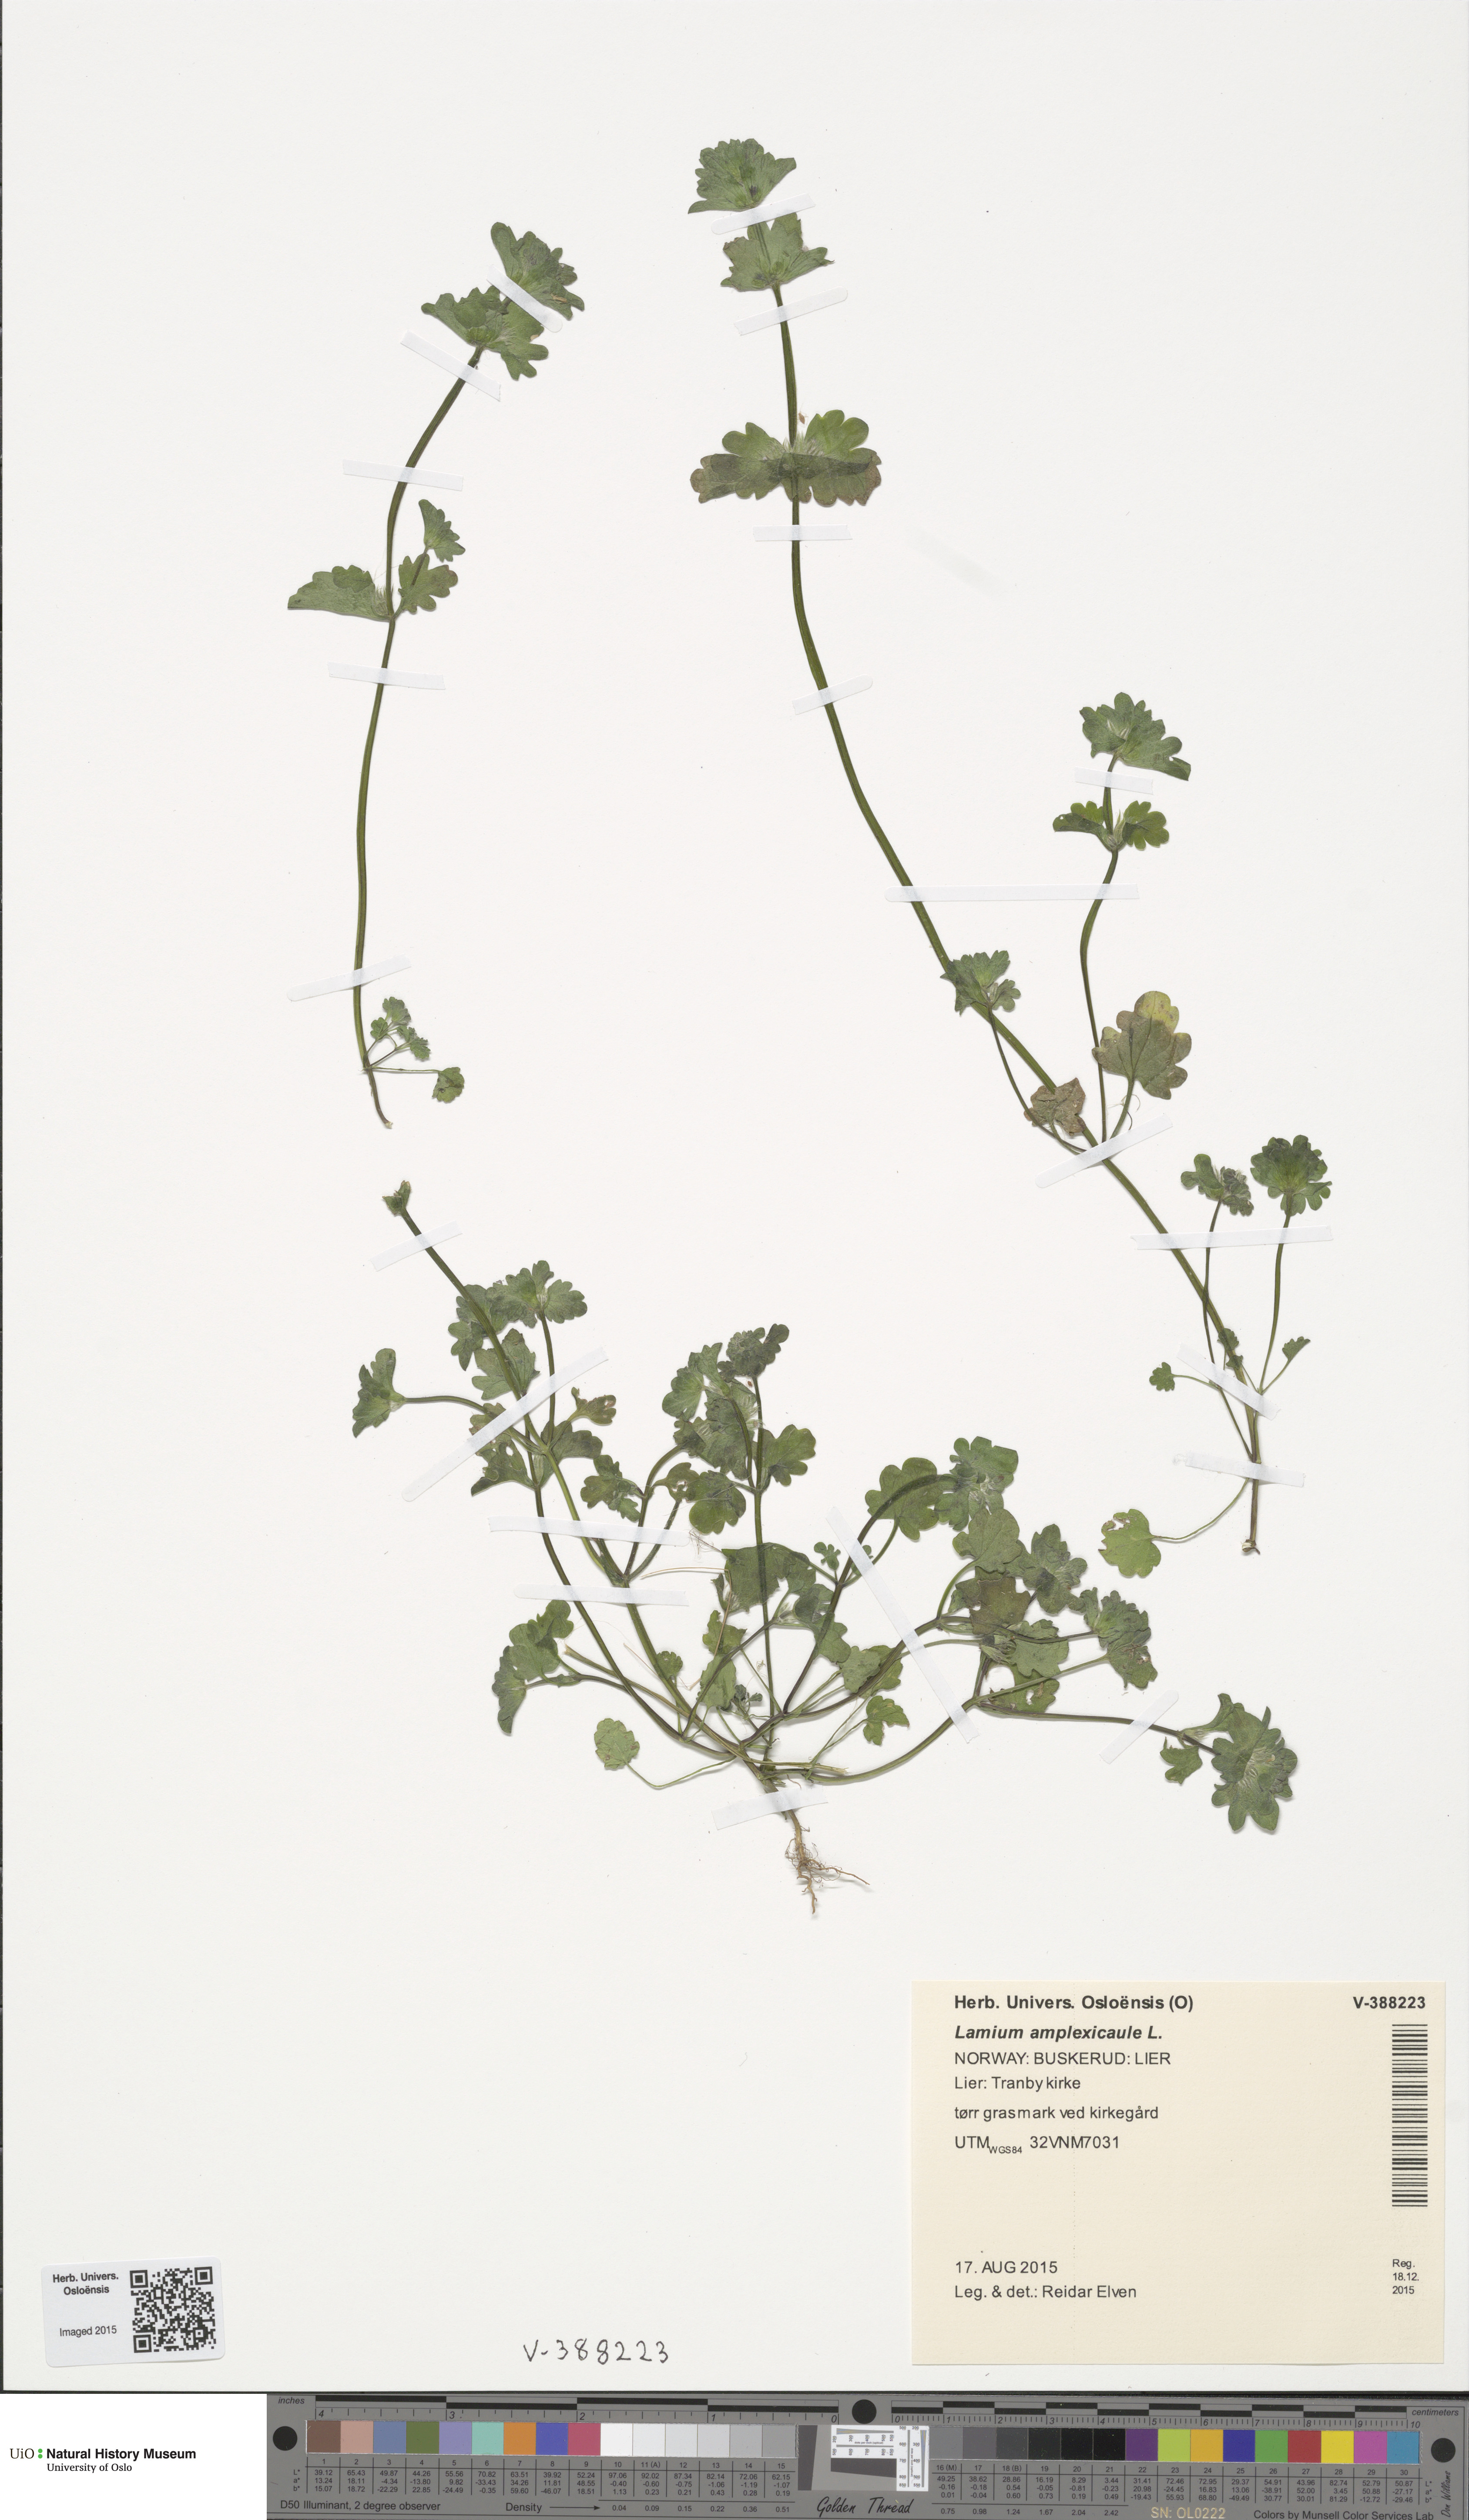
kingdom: Plantae
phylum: Tracheophyta
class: Magnoliopsida
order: Lamiales
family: Lamiaceae
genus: Lamium
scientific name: Lamium amplexicaule
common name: Henbit dead-nettle
